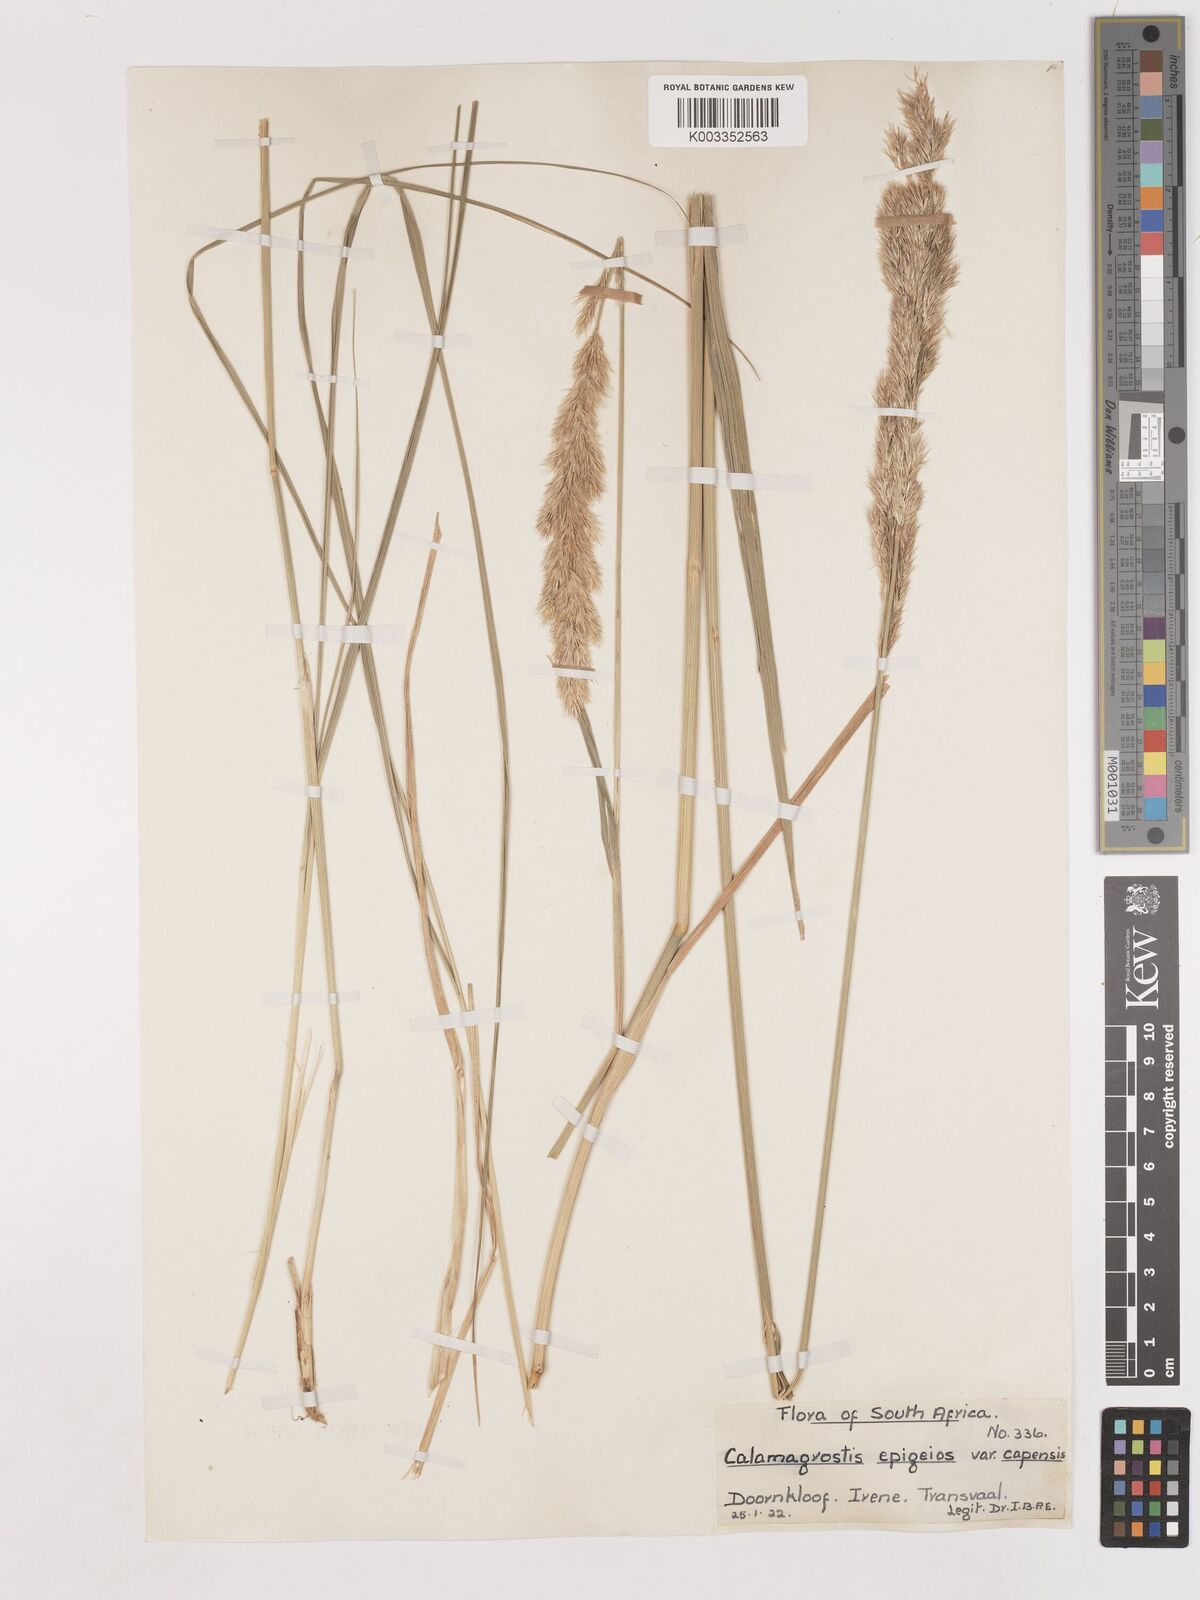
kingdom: Plantae
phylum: Tracheophyta
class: Liliopsida
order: Poales
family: Poaceae
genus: Calamagrostis
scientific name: Calamagrostis epigejos
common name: Wood small-reed
